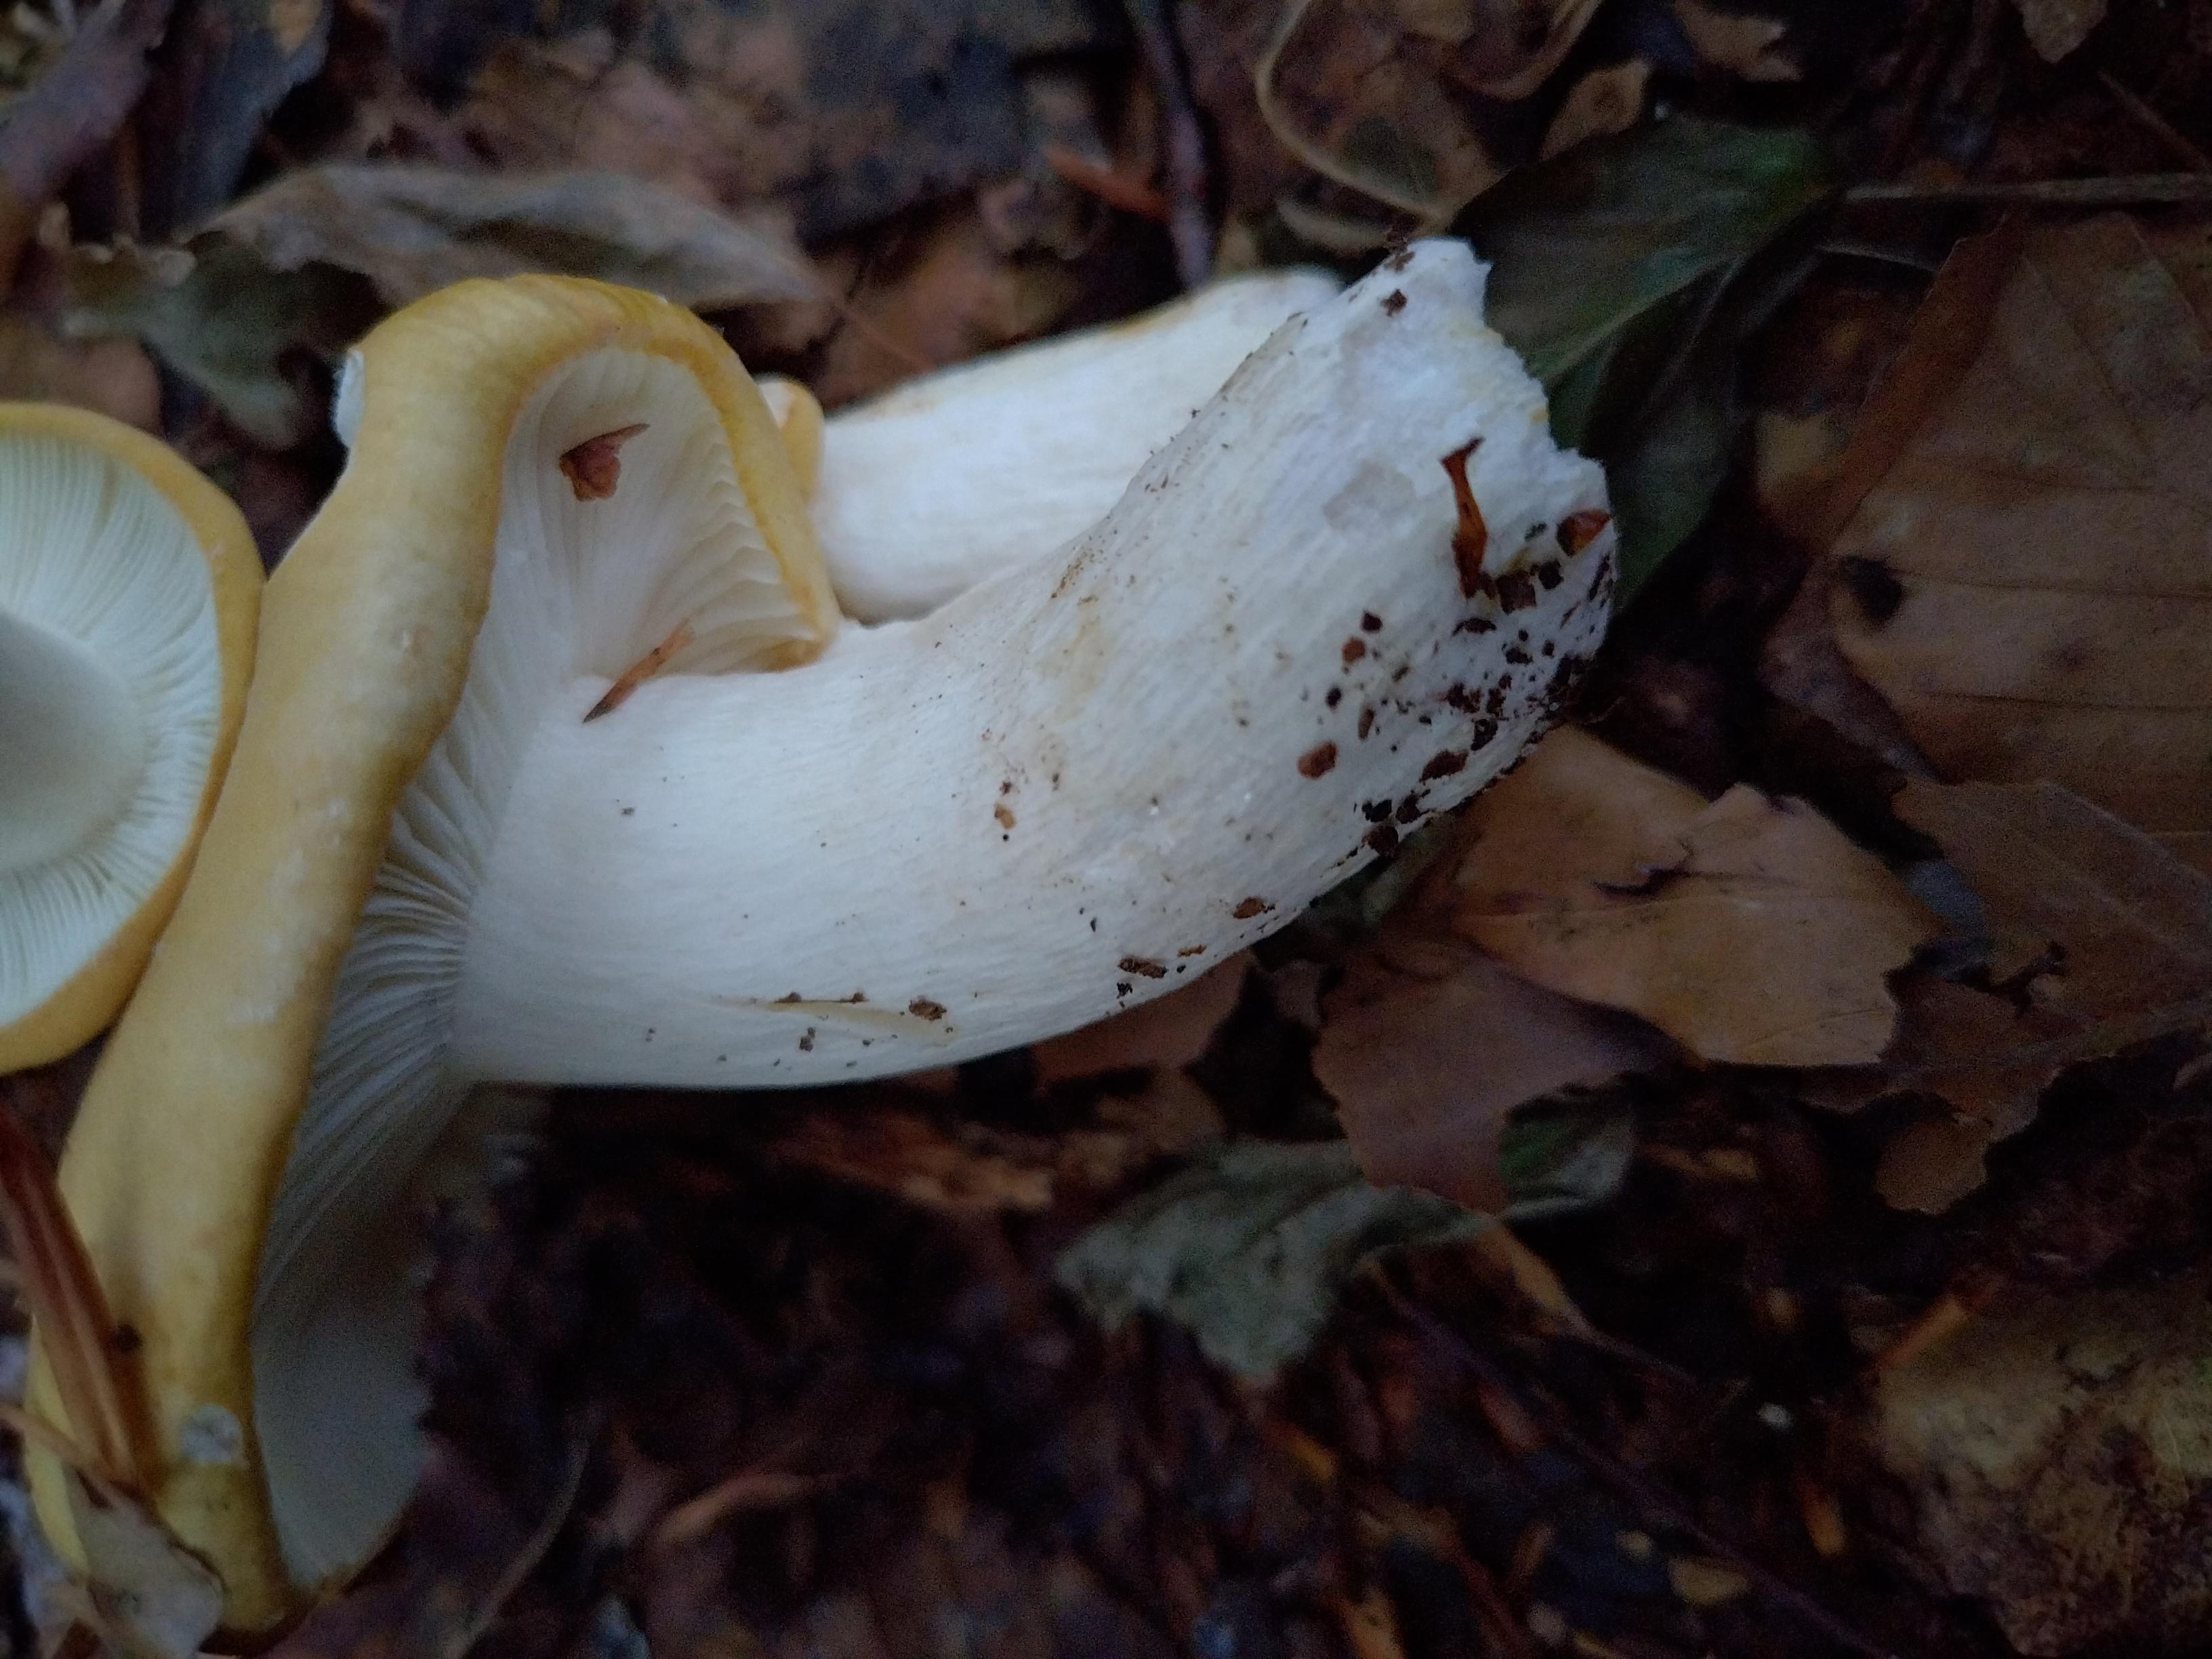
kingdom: Fungi
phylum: Basidiomycota
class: Agaricomycetes
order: Russulales
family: Russulaceae
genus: Russula
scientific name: Russula ochroleuca
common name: okkergul skørhat
